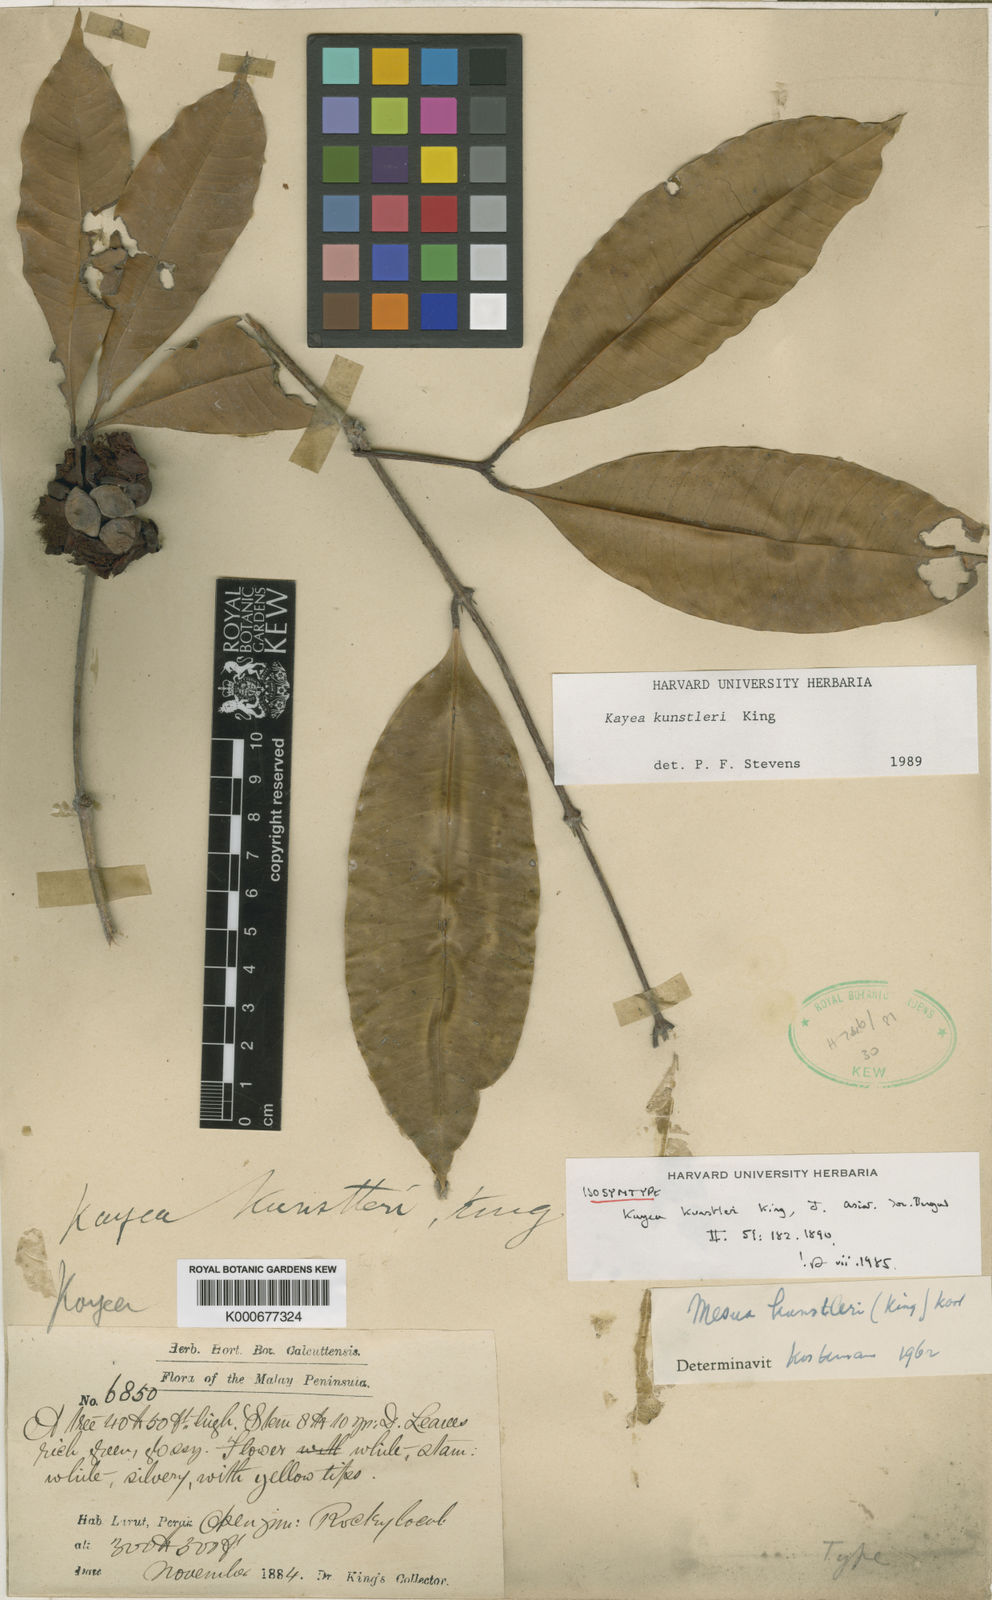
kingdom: Plantae
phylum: Tracheophyta
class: Magnoliopsida
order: Malpighiales
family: Calophyllaceae
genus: Kayea
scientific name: Kayea kunstleri
